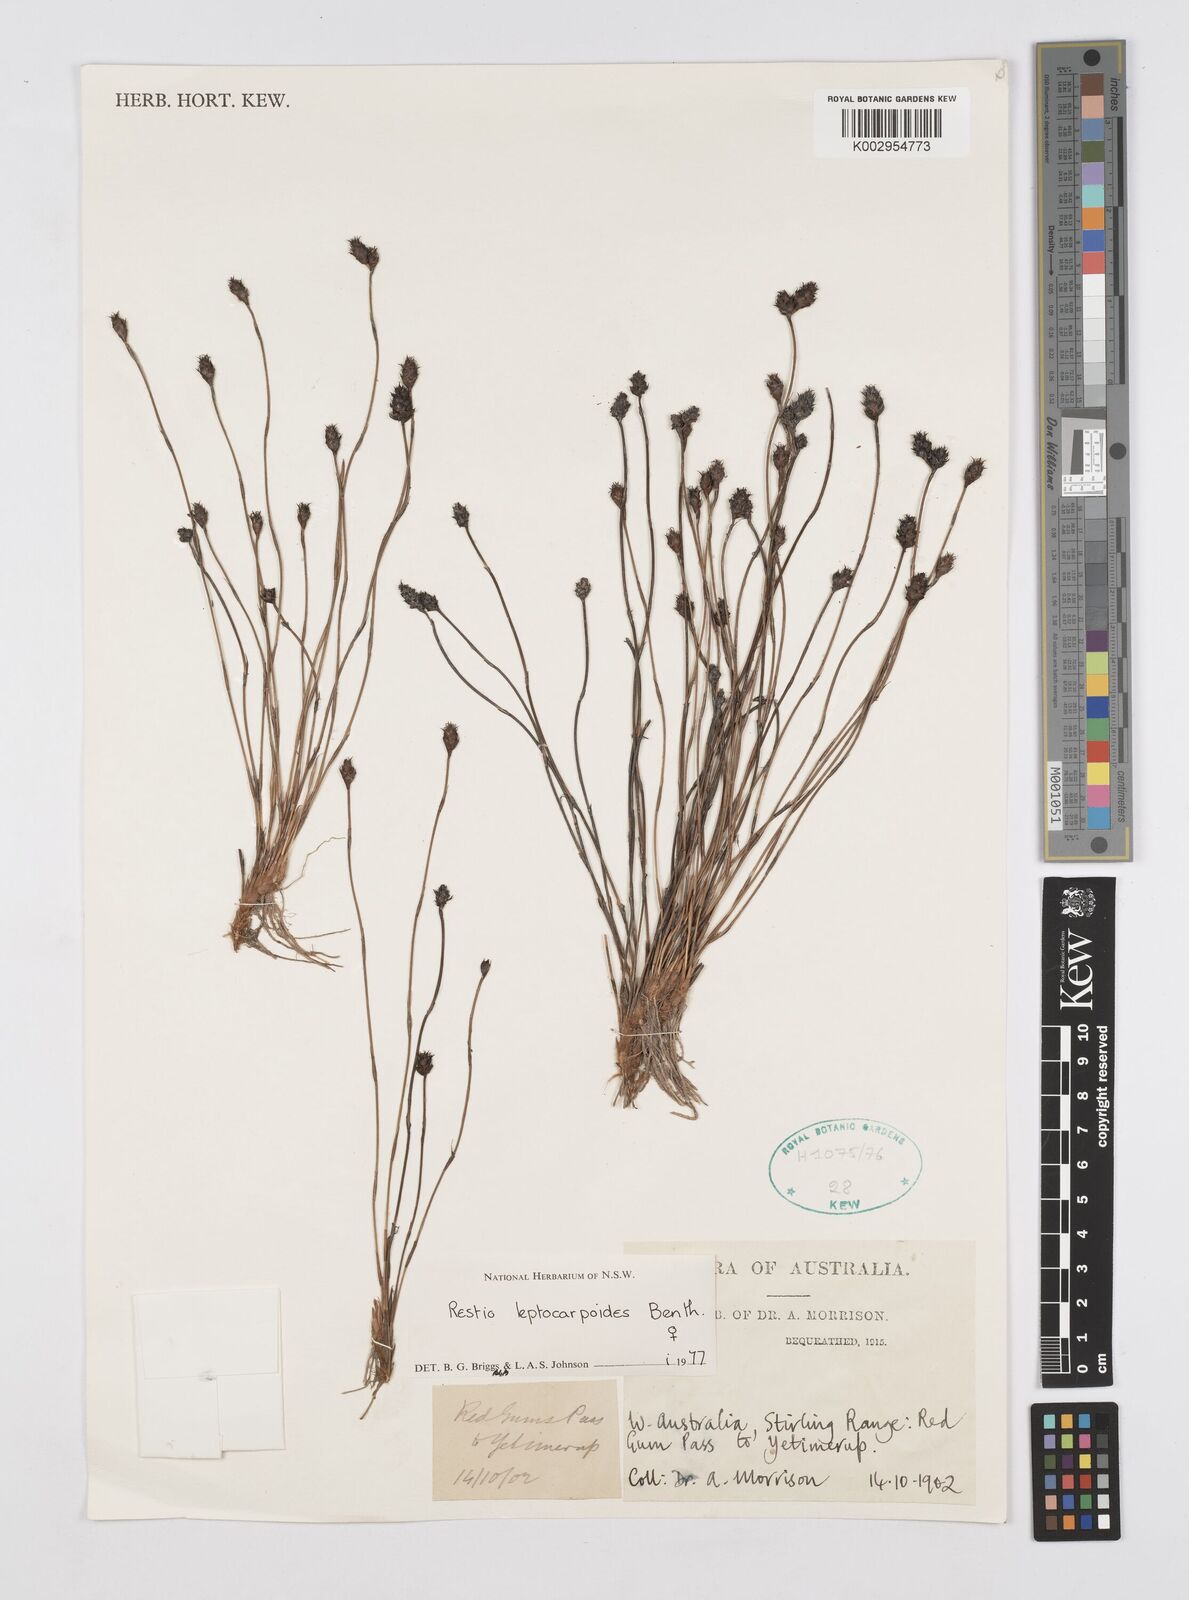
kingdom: Plantae
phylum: Tracheophyta
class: Liliopsida
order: Poales
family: Restionaceae
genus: Cytogonidium
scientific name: Cytogonidium leptocarpoides
